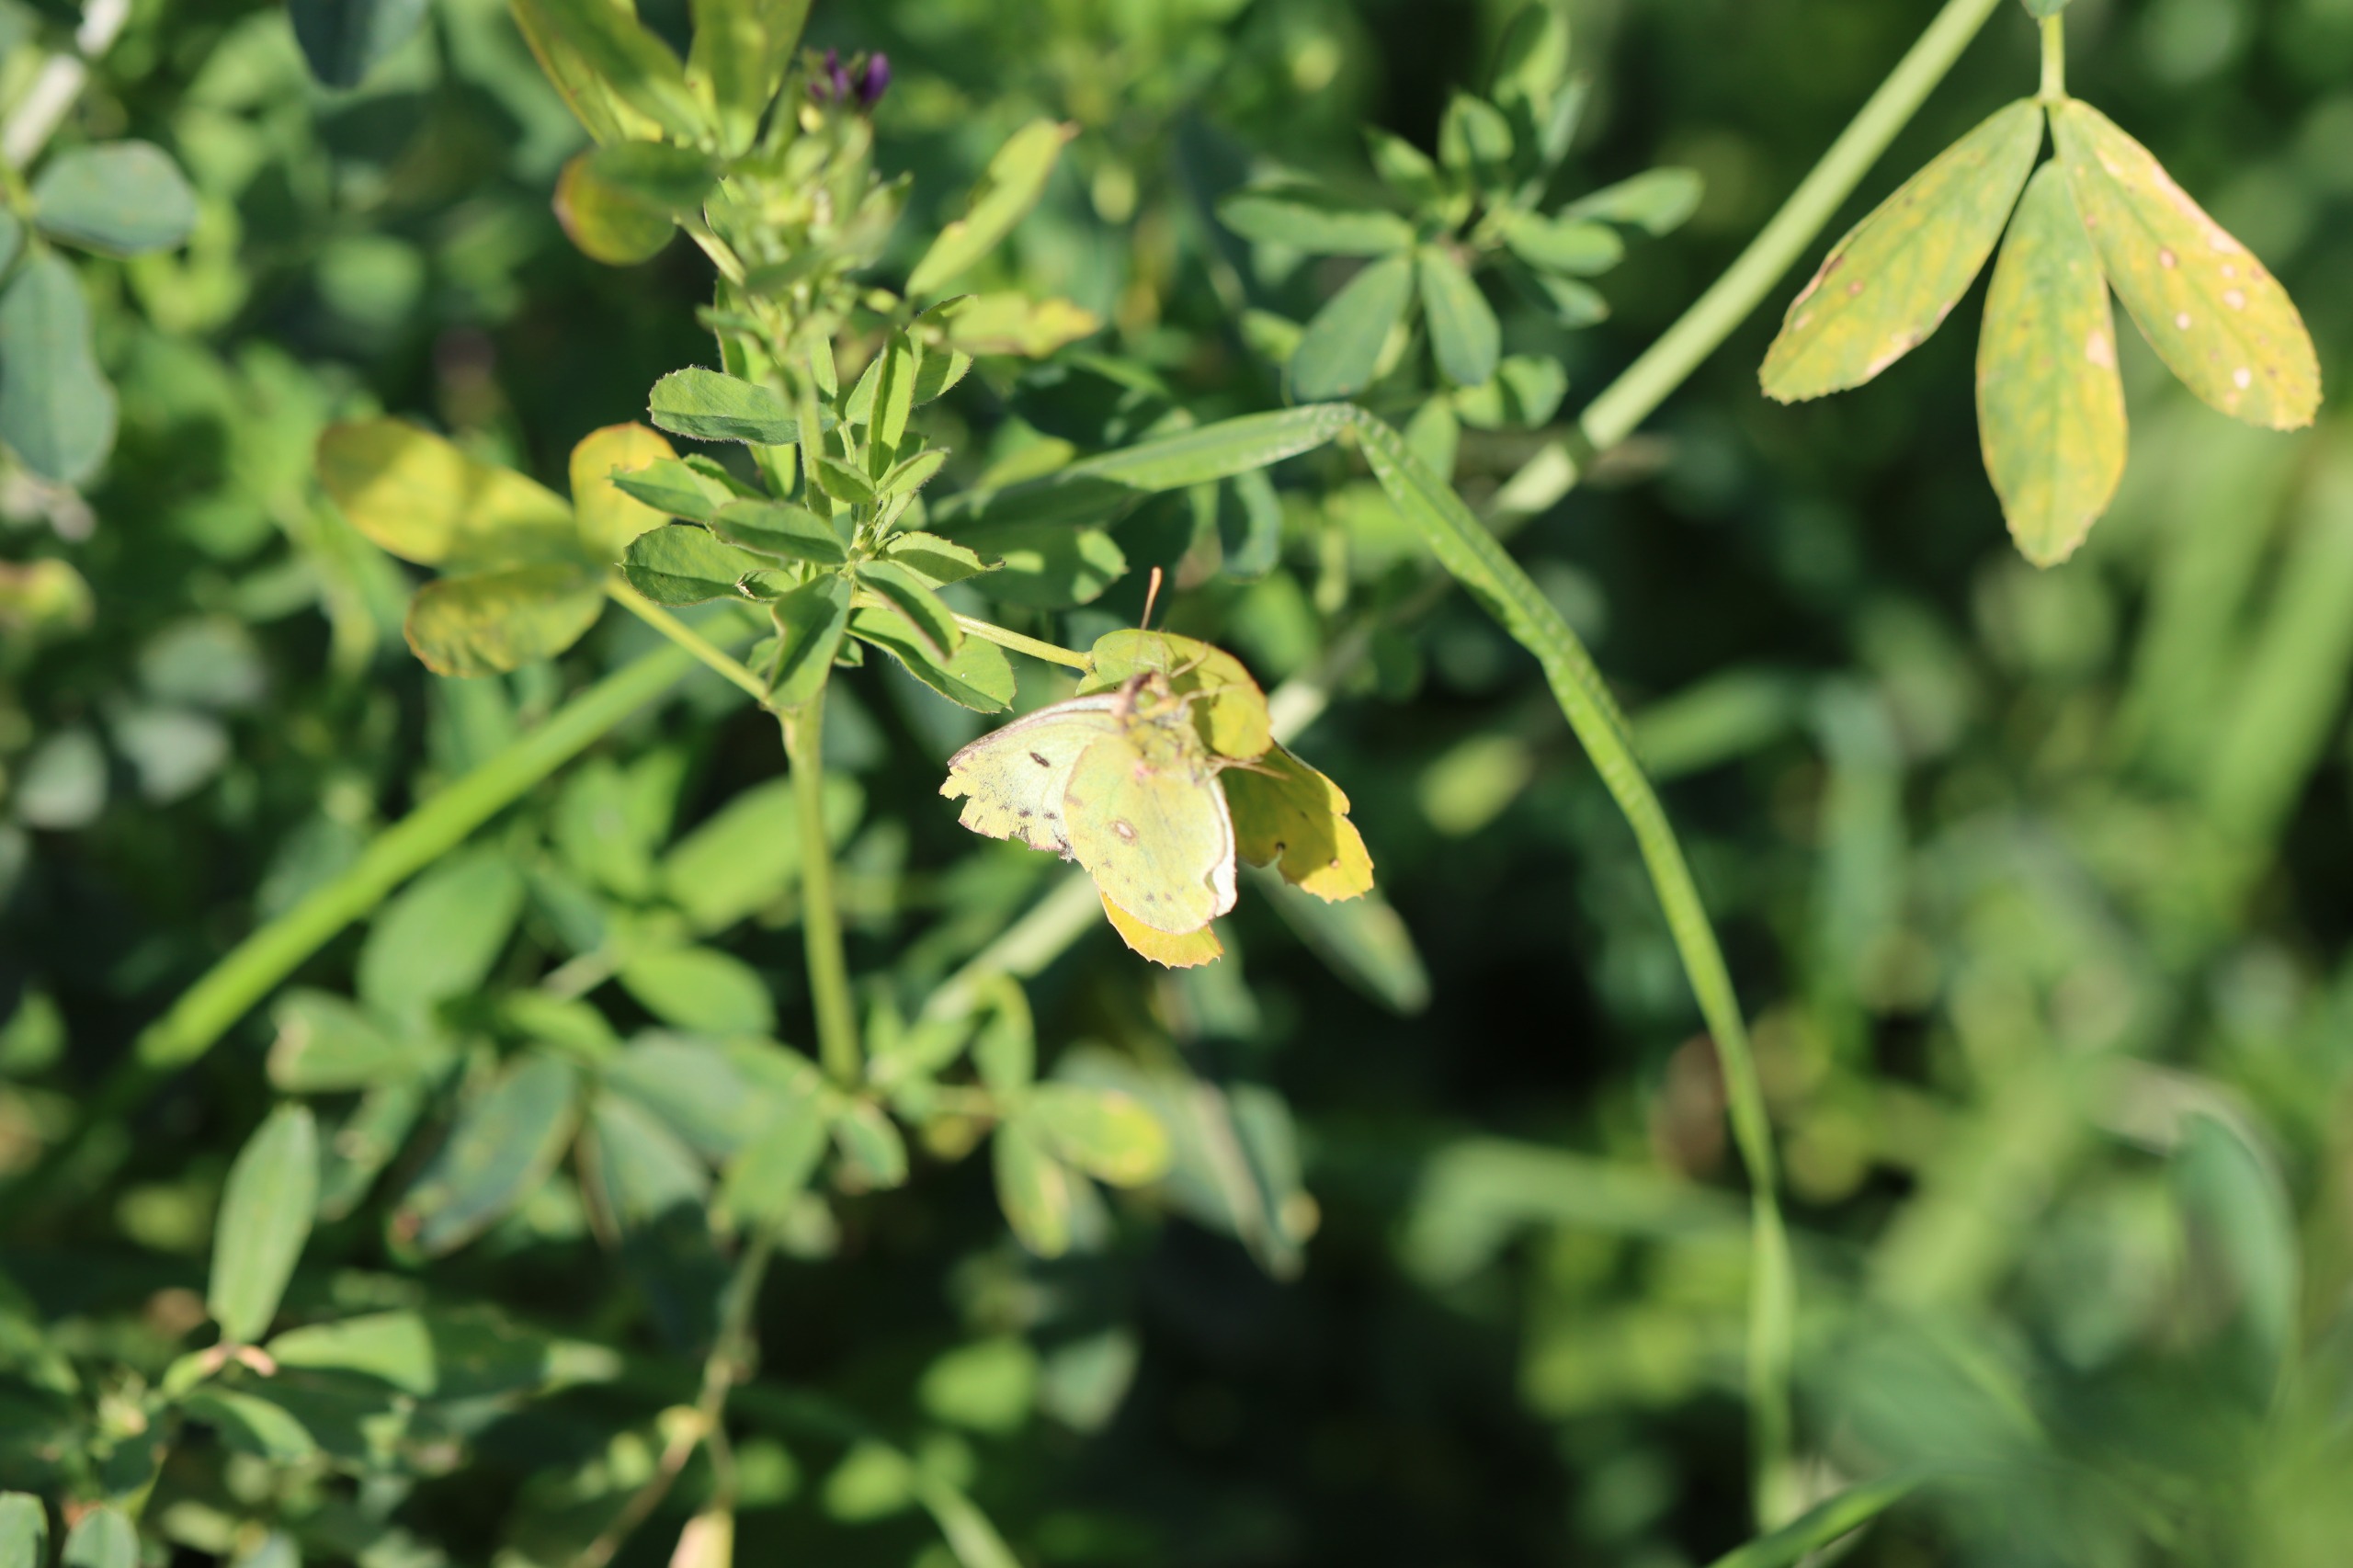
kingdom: Animalia
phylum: Arthropoda
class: Insecta
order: Lepidoptera
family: Pieridae
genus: Colias
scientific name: Colias hyale
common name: Gul høsommerfugl
